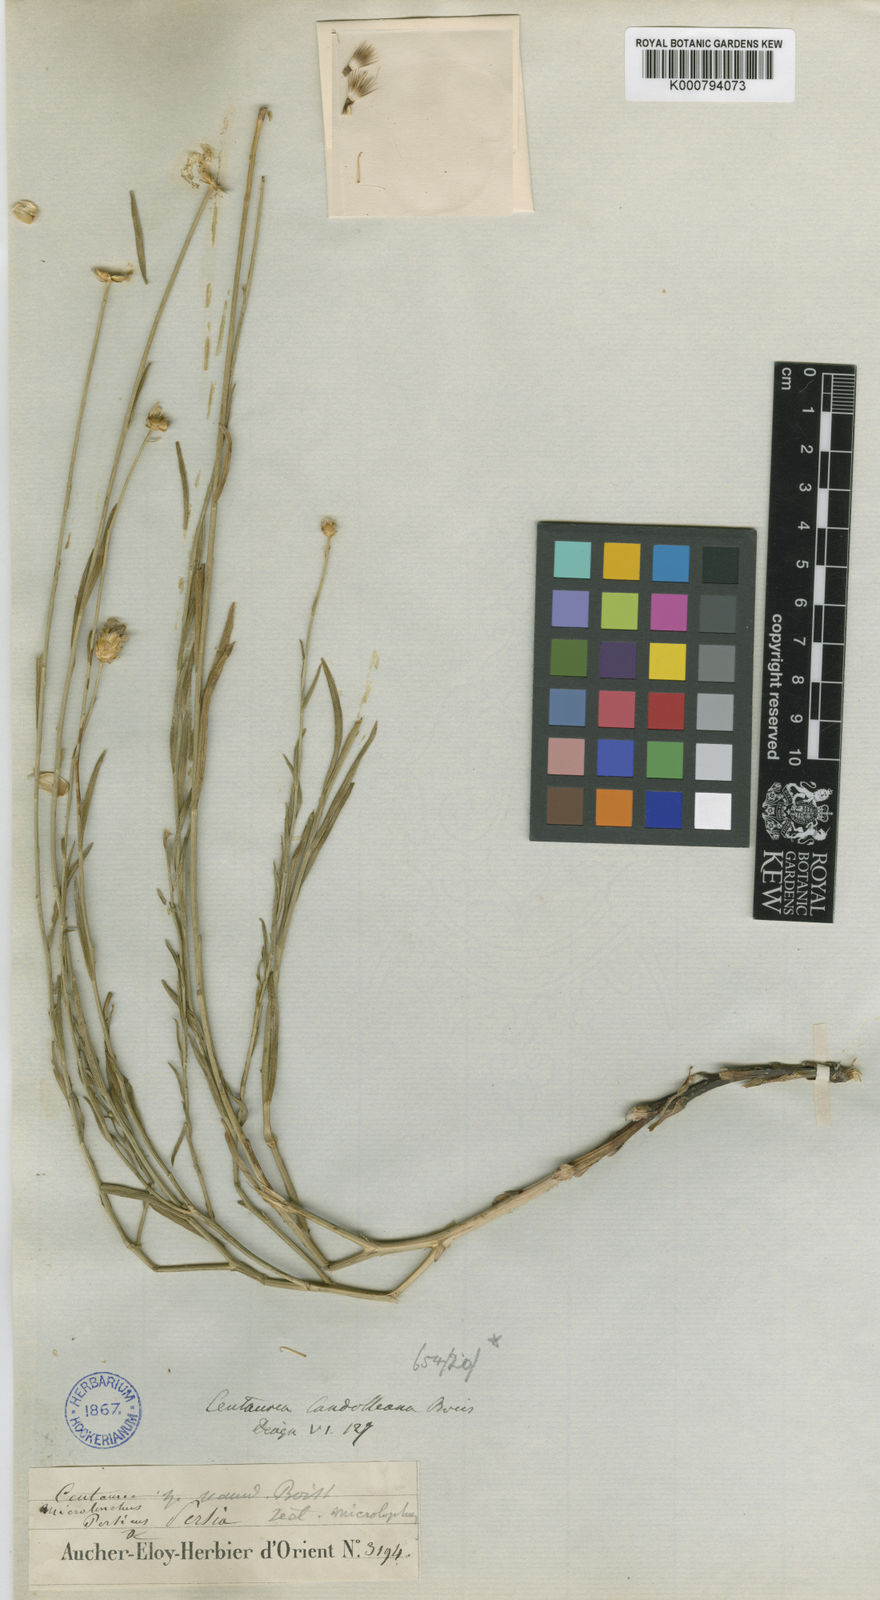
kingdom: Plantae
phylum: Tracheophyta
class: Magnoliopsida
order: Asterales
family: Asteraceae
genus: Centaurea
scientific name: Centaurea kotschyi
